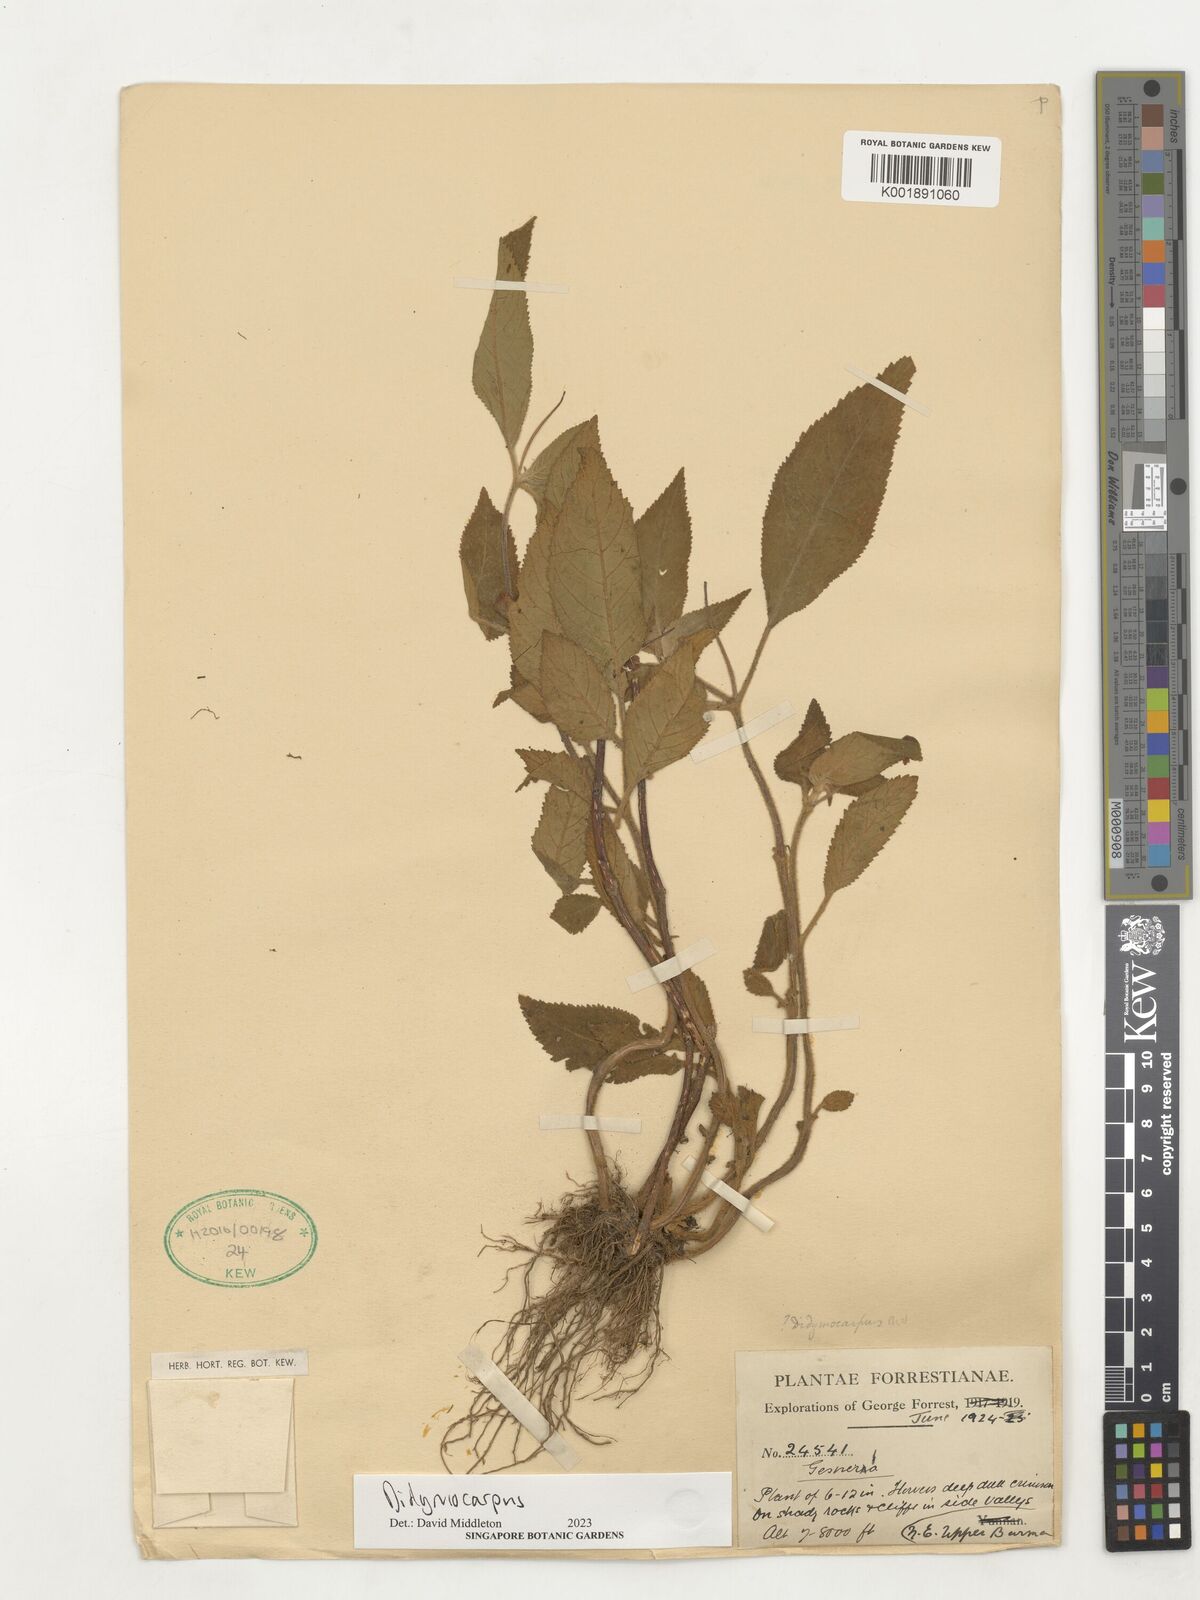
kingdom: Plantae
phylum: Tracheophyta
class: Magnoliopsida
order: Lamiales
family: Gesneriaceae
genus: Didymocarpus
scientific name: Didymocarpus
